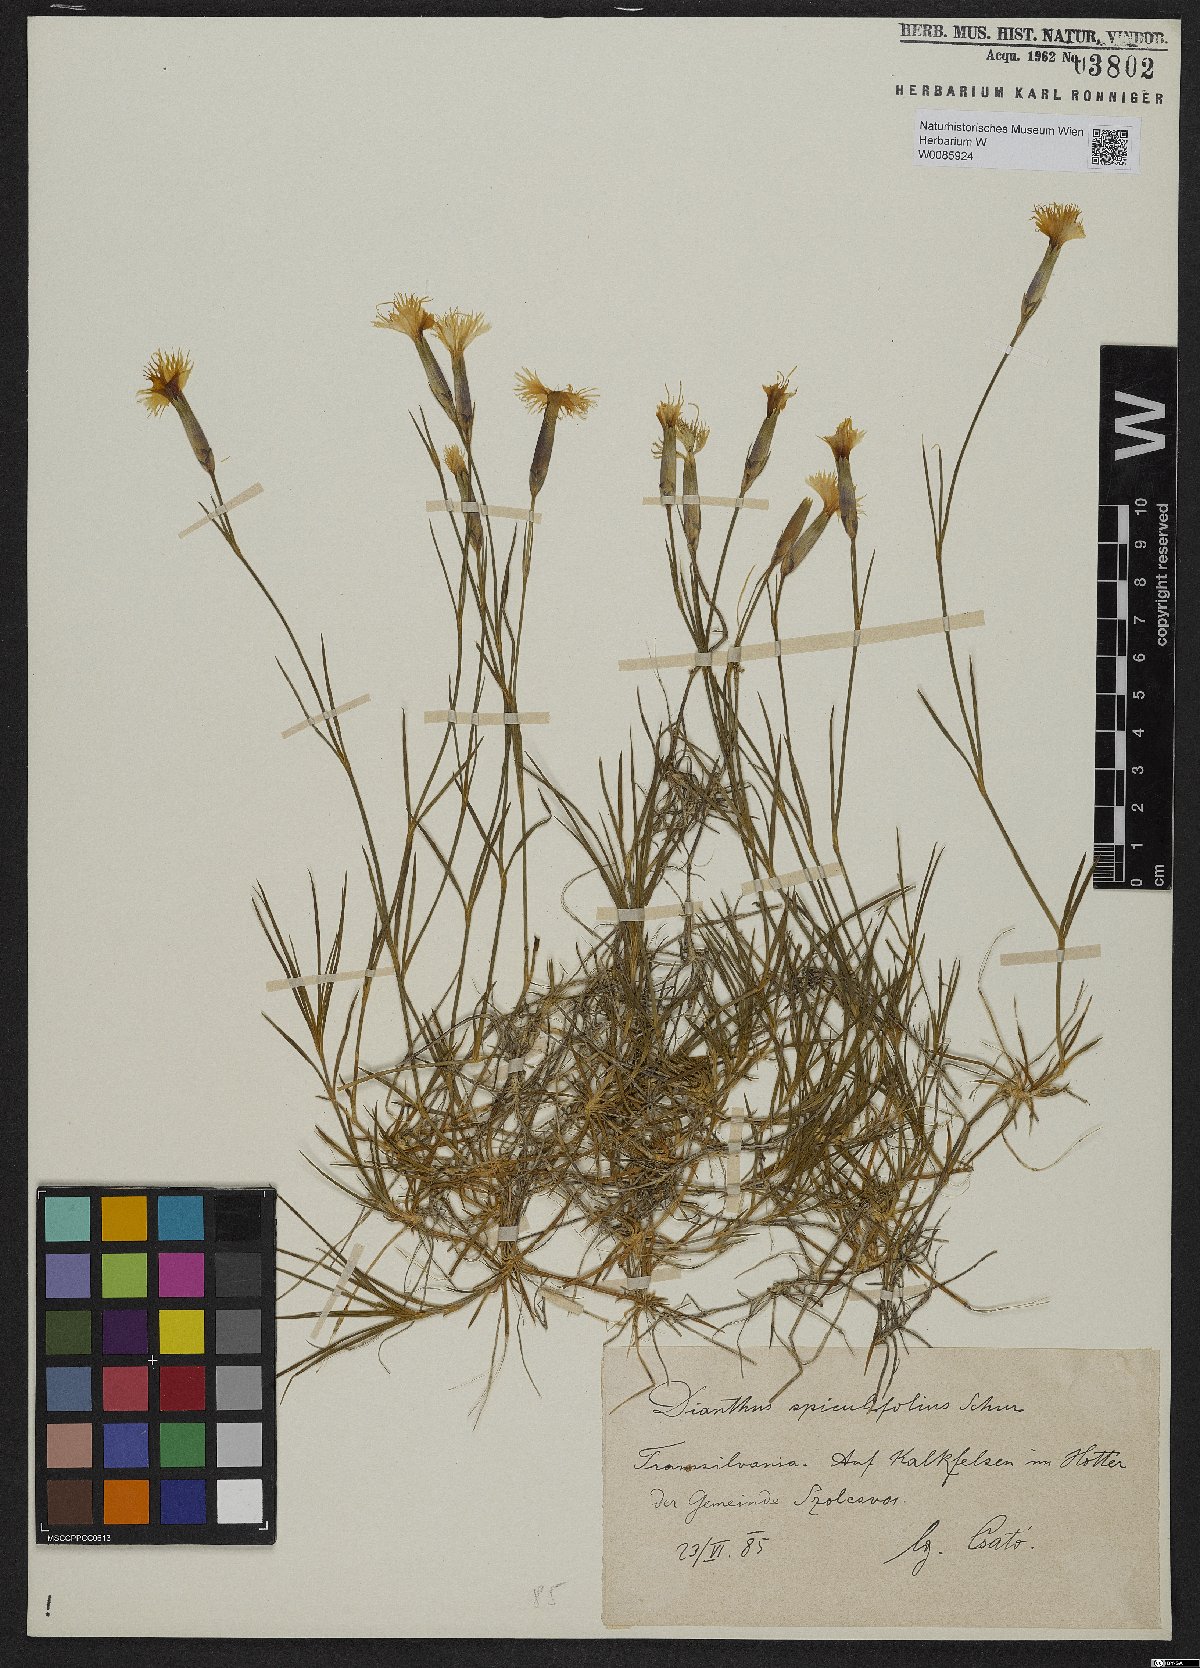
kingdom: Plantae
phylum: Tracheophyta
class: Magnoliopsida
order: Caryophyllales
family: Caryophyllaceae
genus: Dianthus
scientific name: Dianthus spiculifolius
